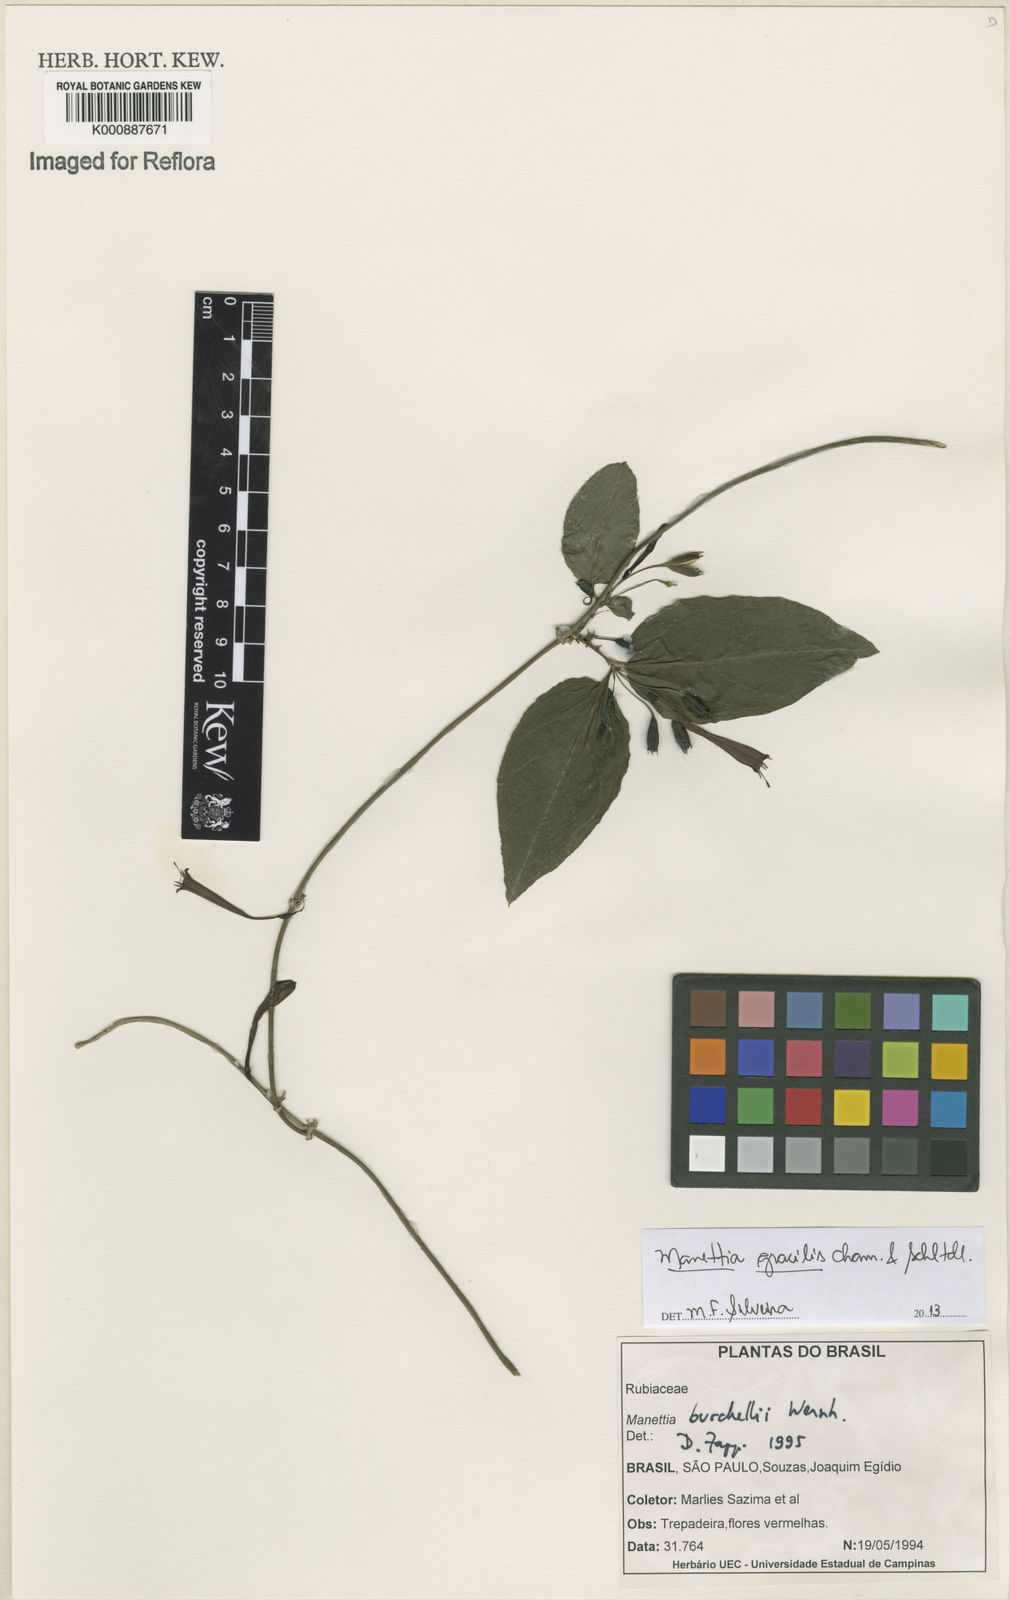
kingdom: Plantae
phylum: Tracheophyta
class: Magnoliopsida
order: Gentianales
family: Rubiaceae
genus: Manettia
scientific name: Manettia gracilis
